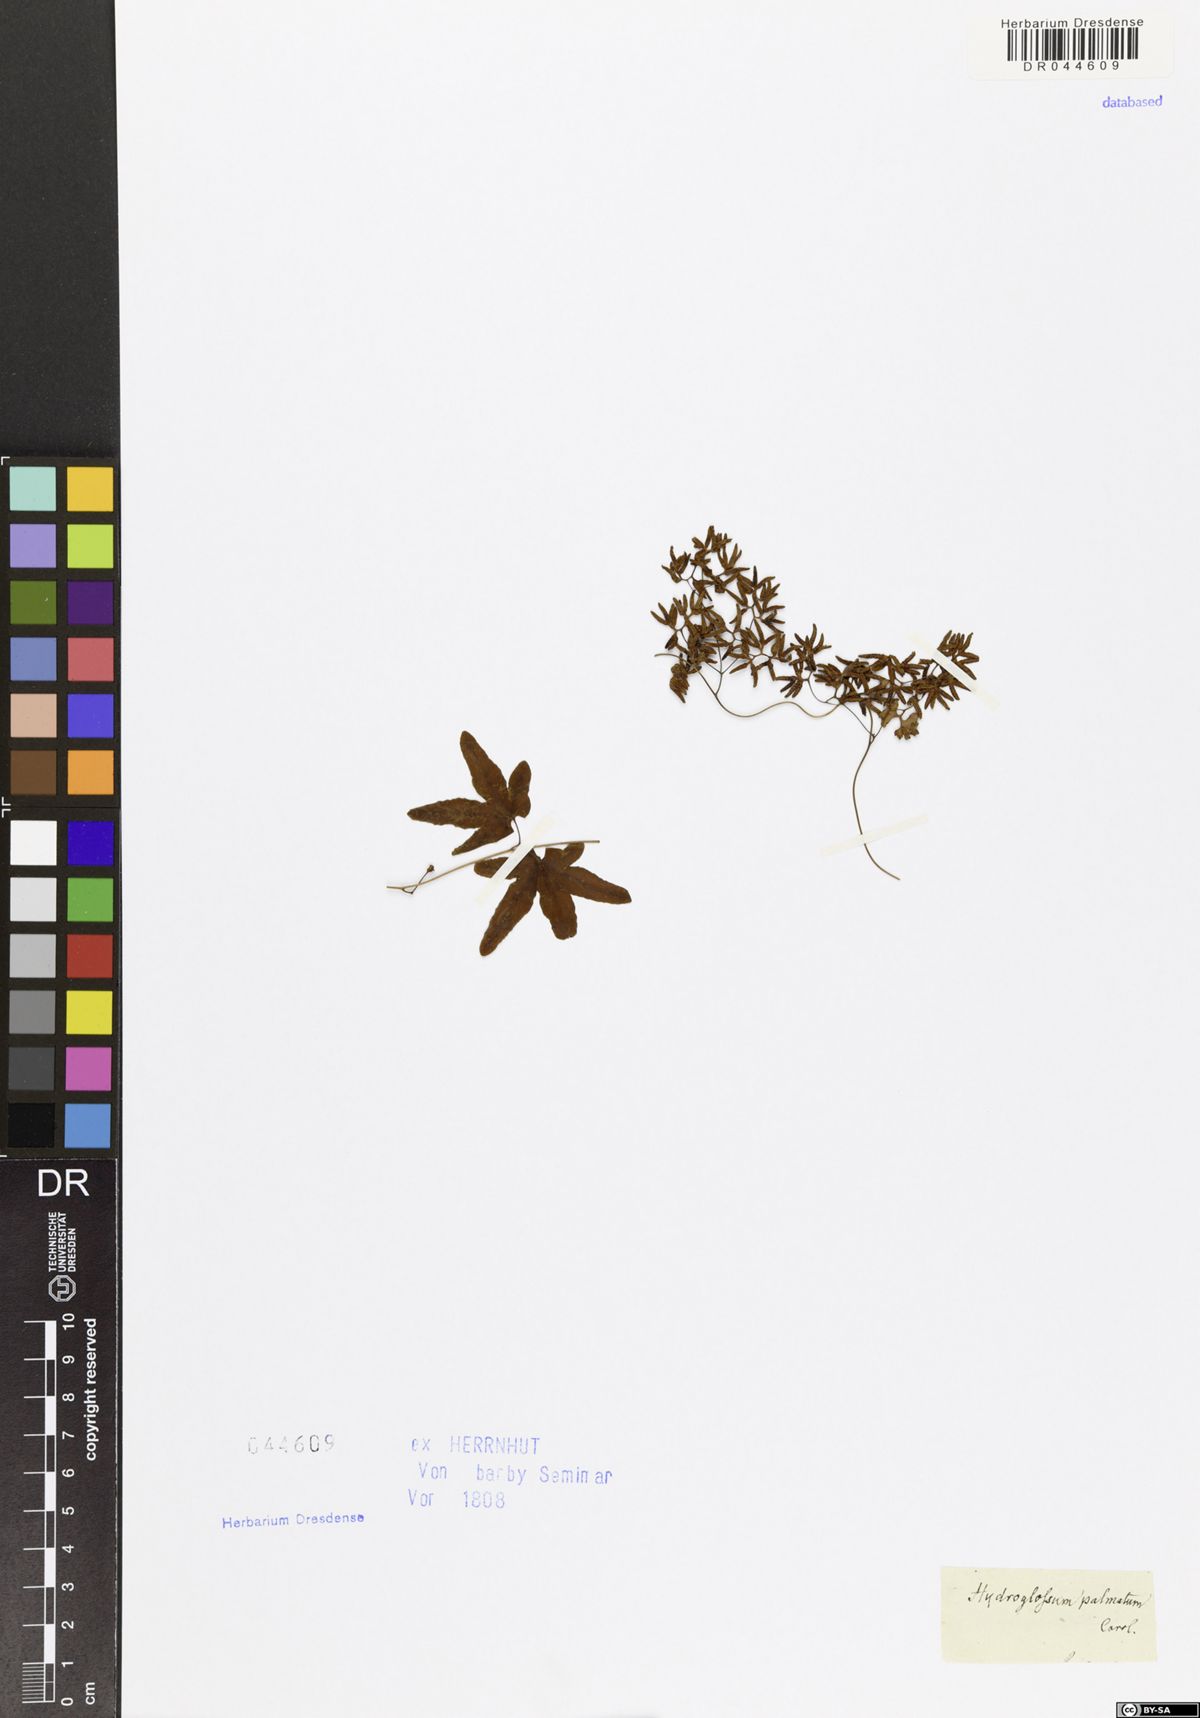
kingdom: Plantae
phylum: Tracheophyta
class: Polypodiopsida
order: Schizaeales
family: Lygodiaceae
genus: Lygodium
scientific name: Lygodium palmatum
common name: American climbing fern
